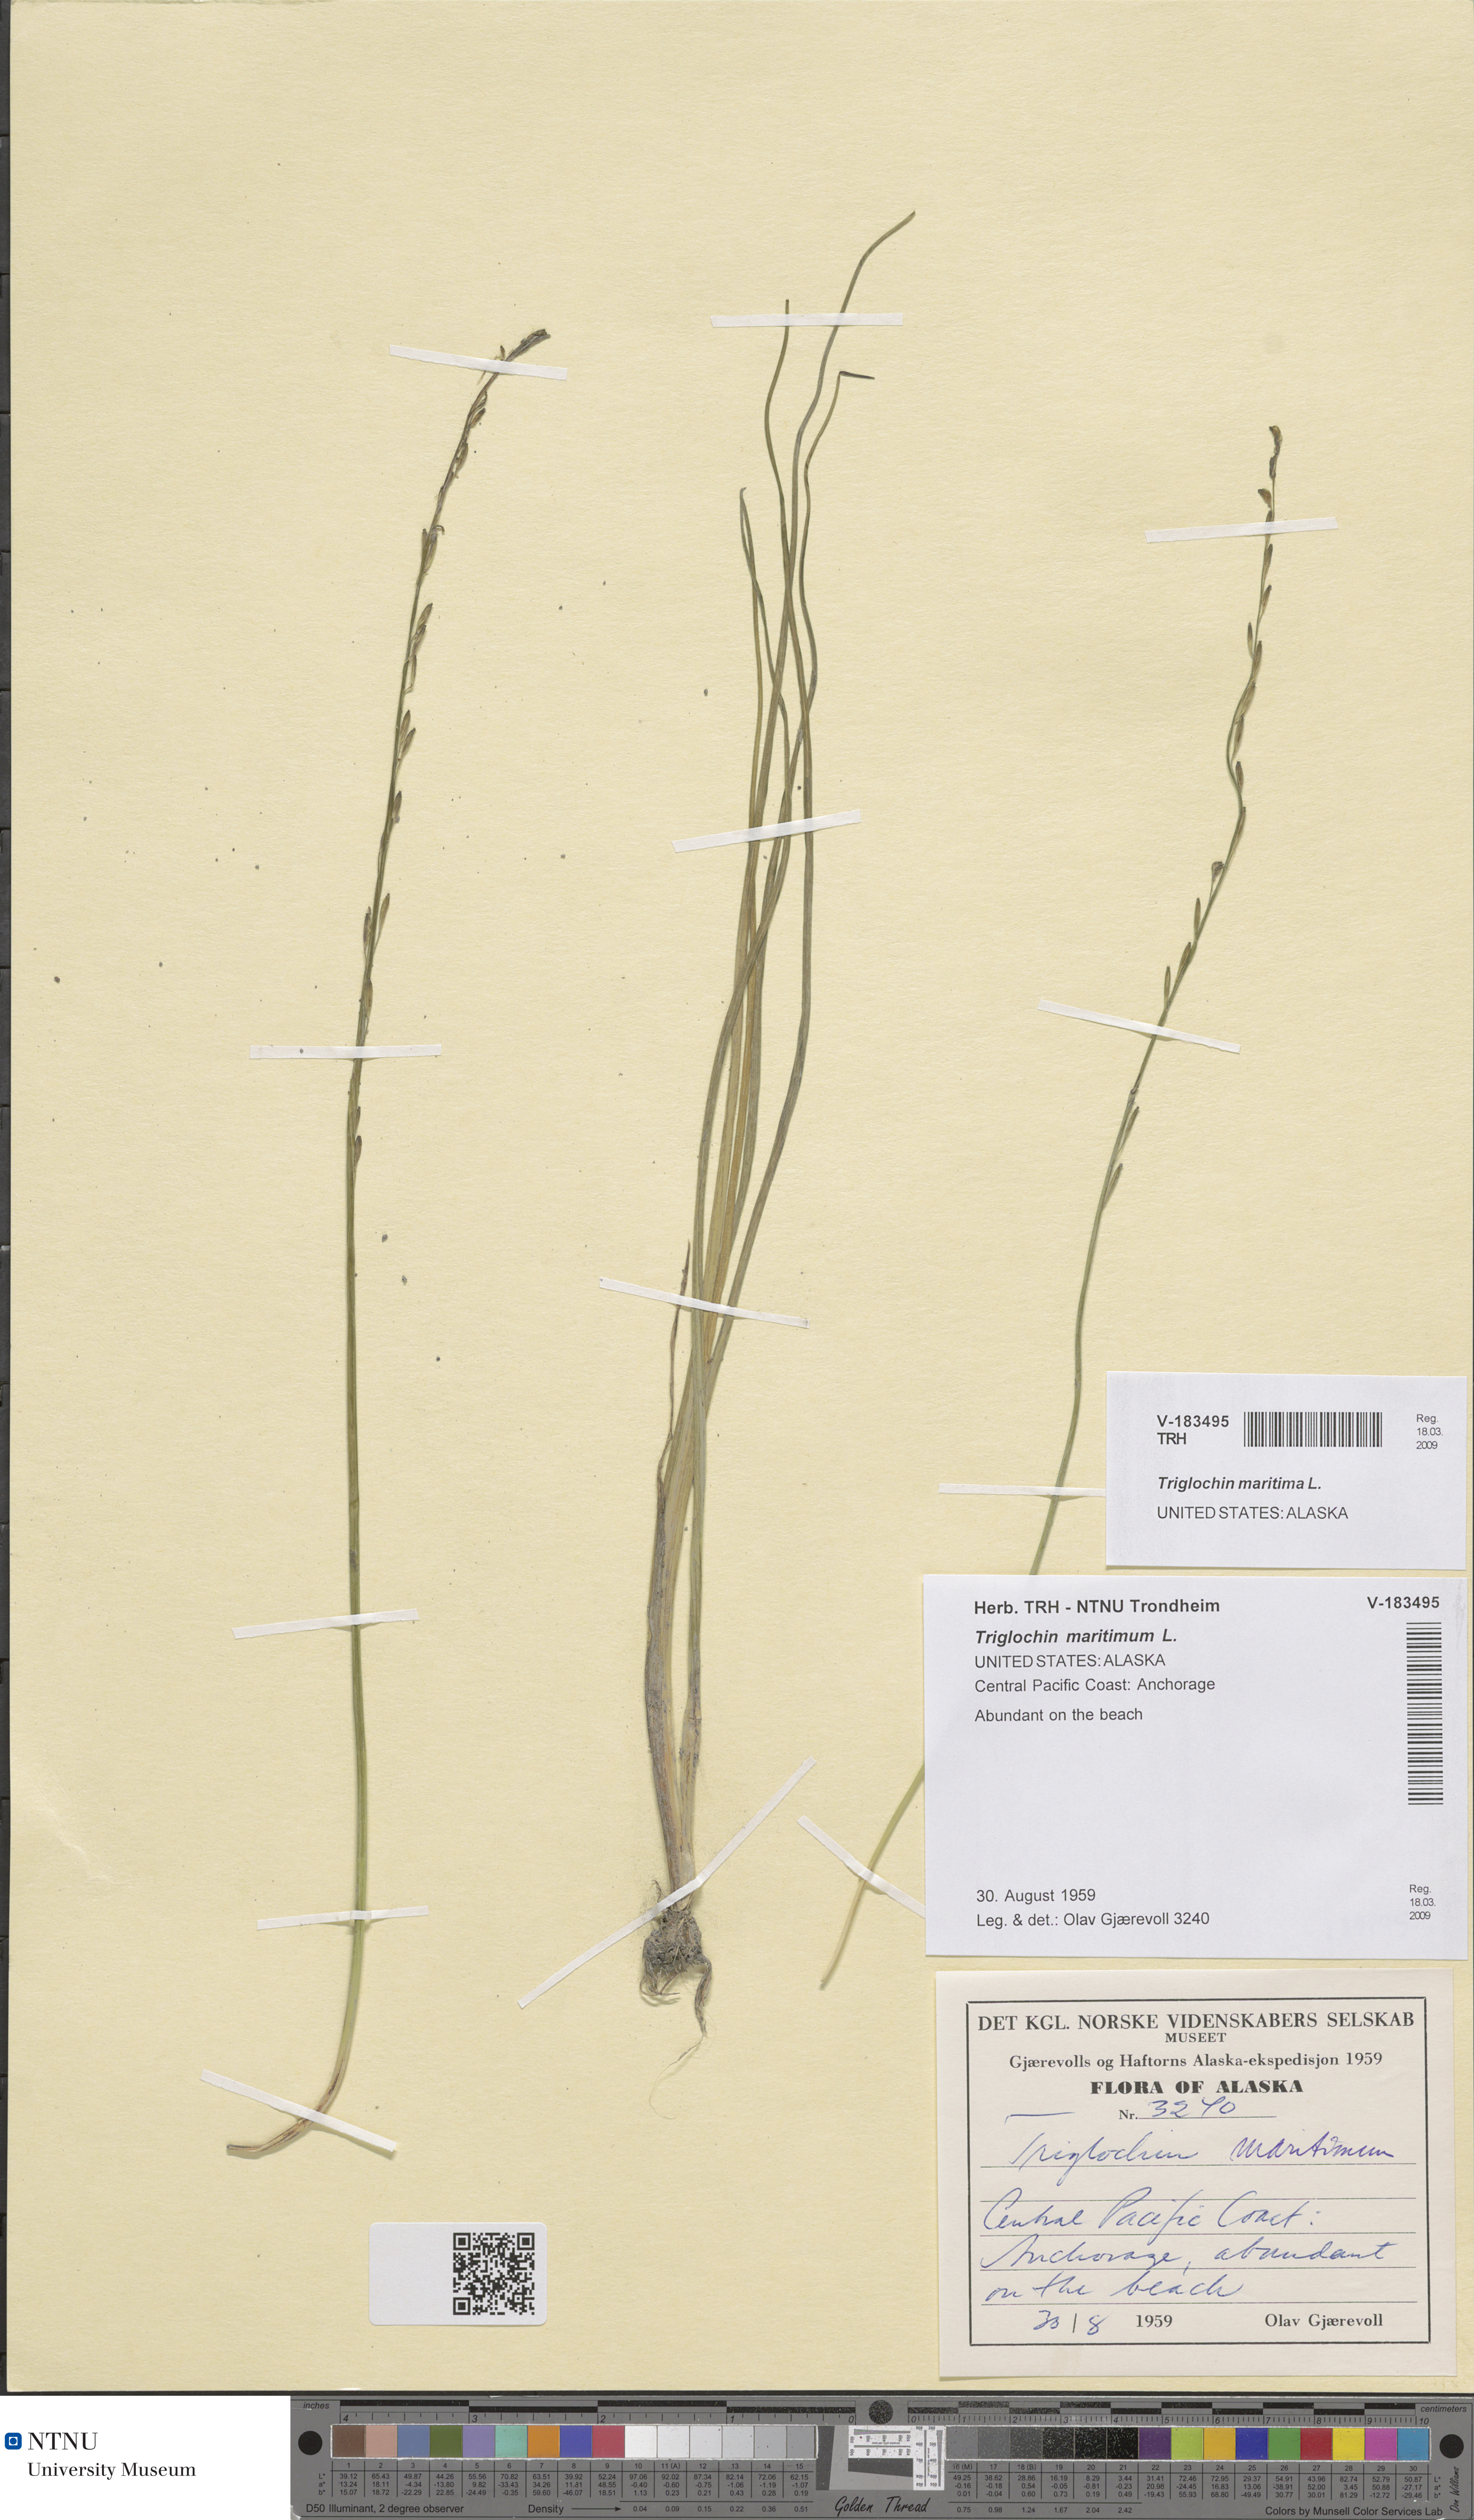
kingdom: Plantae
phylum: Tracheophyta
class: Liliopsida
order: Alismatales
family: Juncaginaceae
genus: Triglochin
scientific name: Triglochin maritima
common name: Sea arrowgrass
